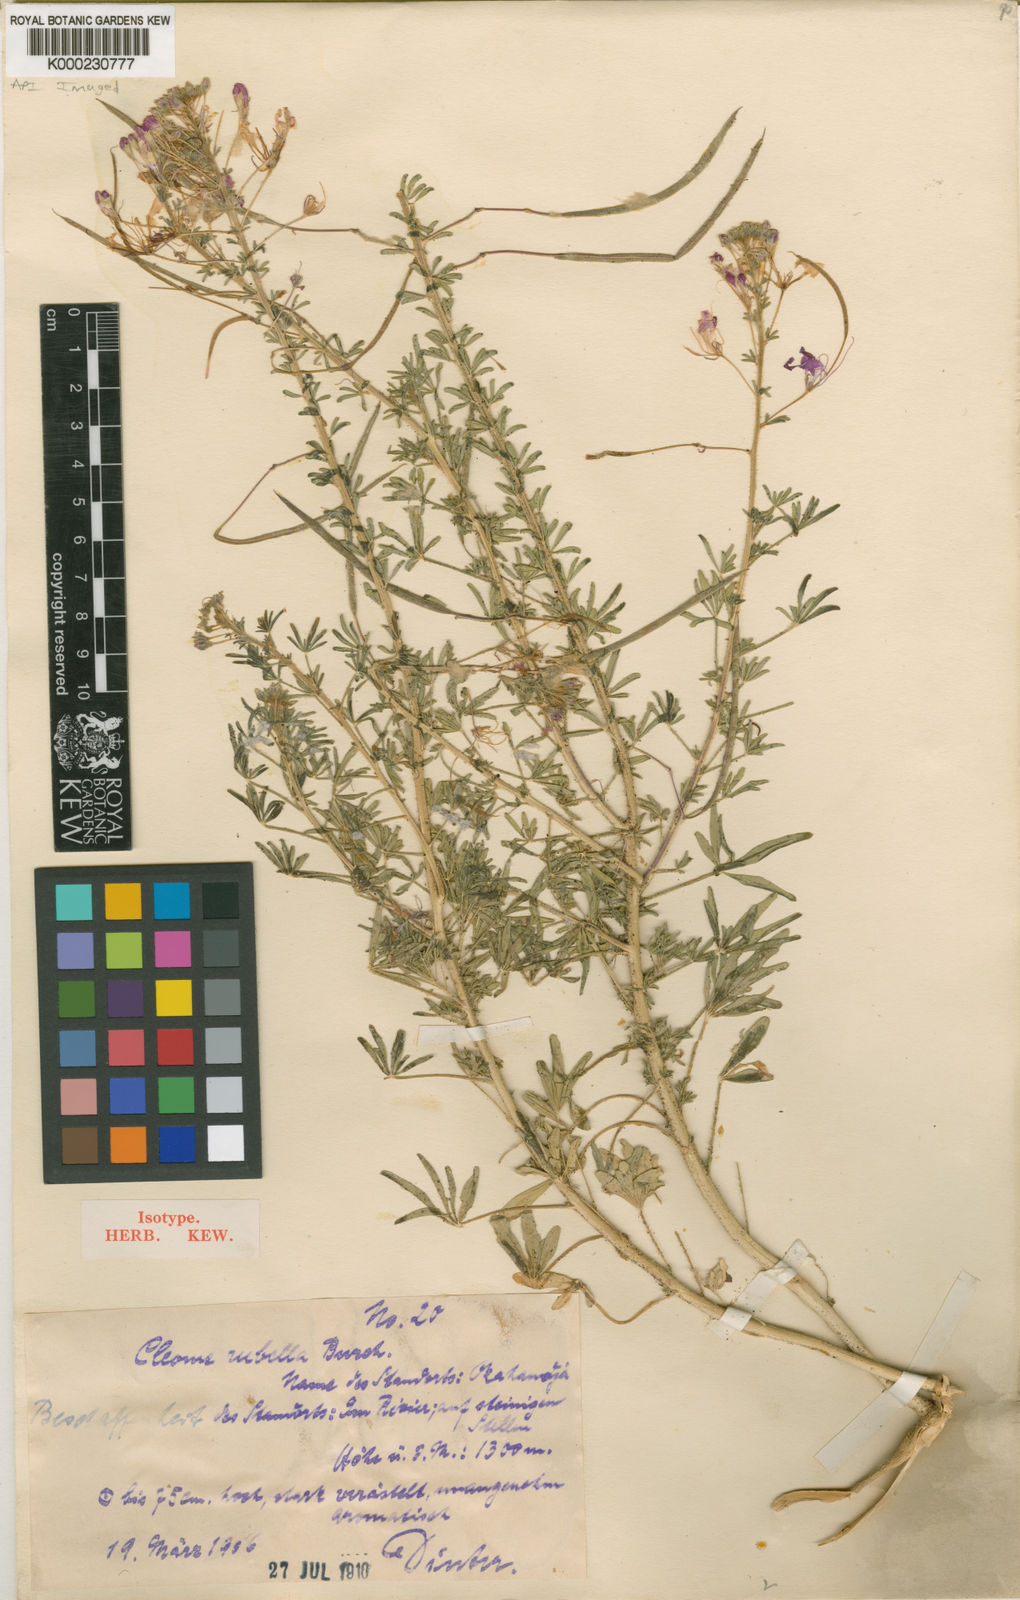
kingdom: Plantae
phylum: Tracheophyta
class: Magnoliopsida
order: Brassicales
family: Cleomaceae
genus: Sieruela
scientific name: Sieruela elegantissima
